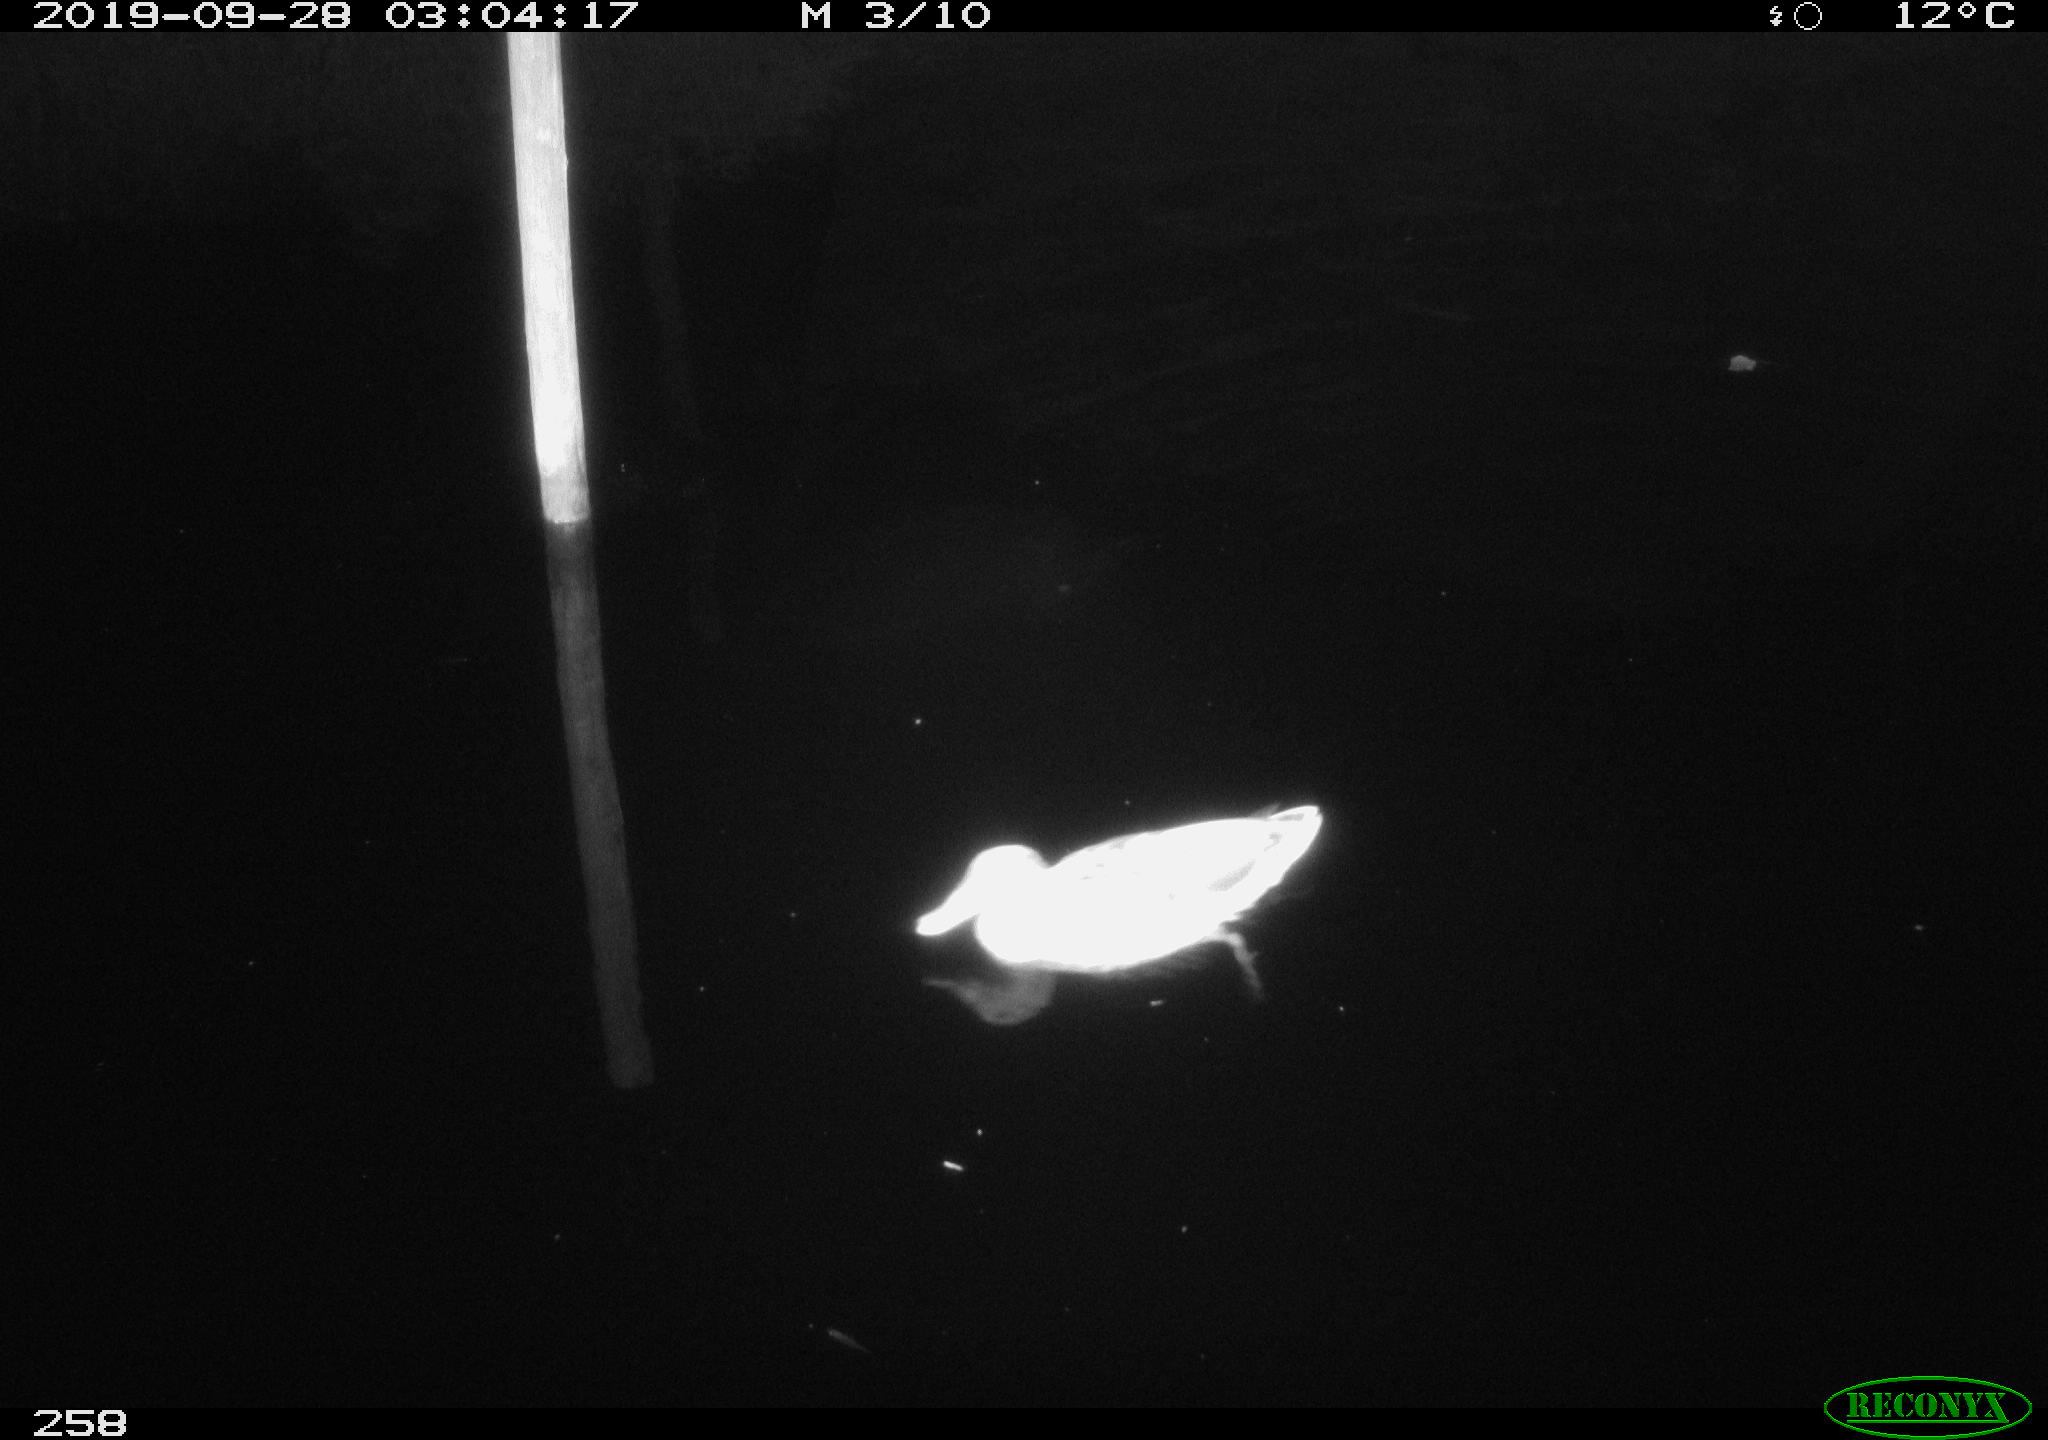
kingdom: Animalia
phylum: Chordata
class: Aves
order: Anseriformes
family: Anatidae
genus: Anas
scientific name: Anas platyrhynchos
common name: Mallard
